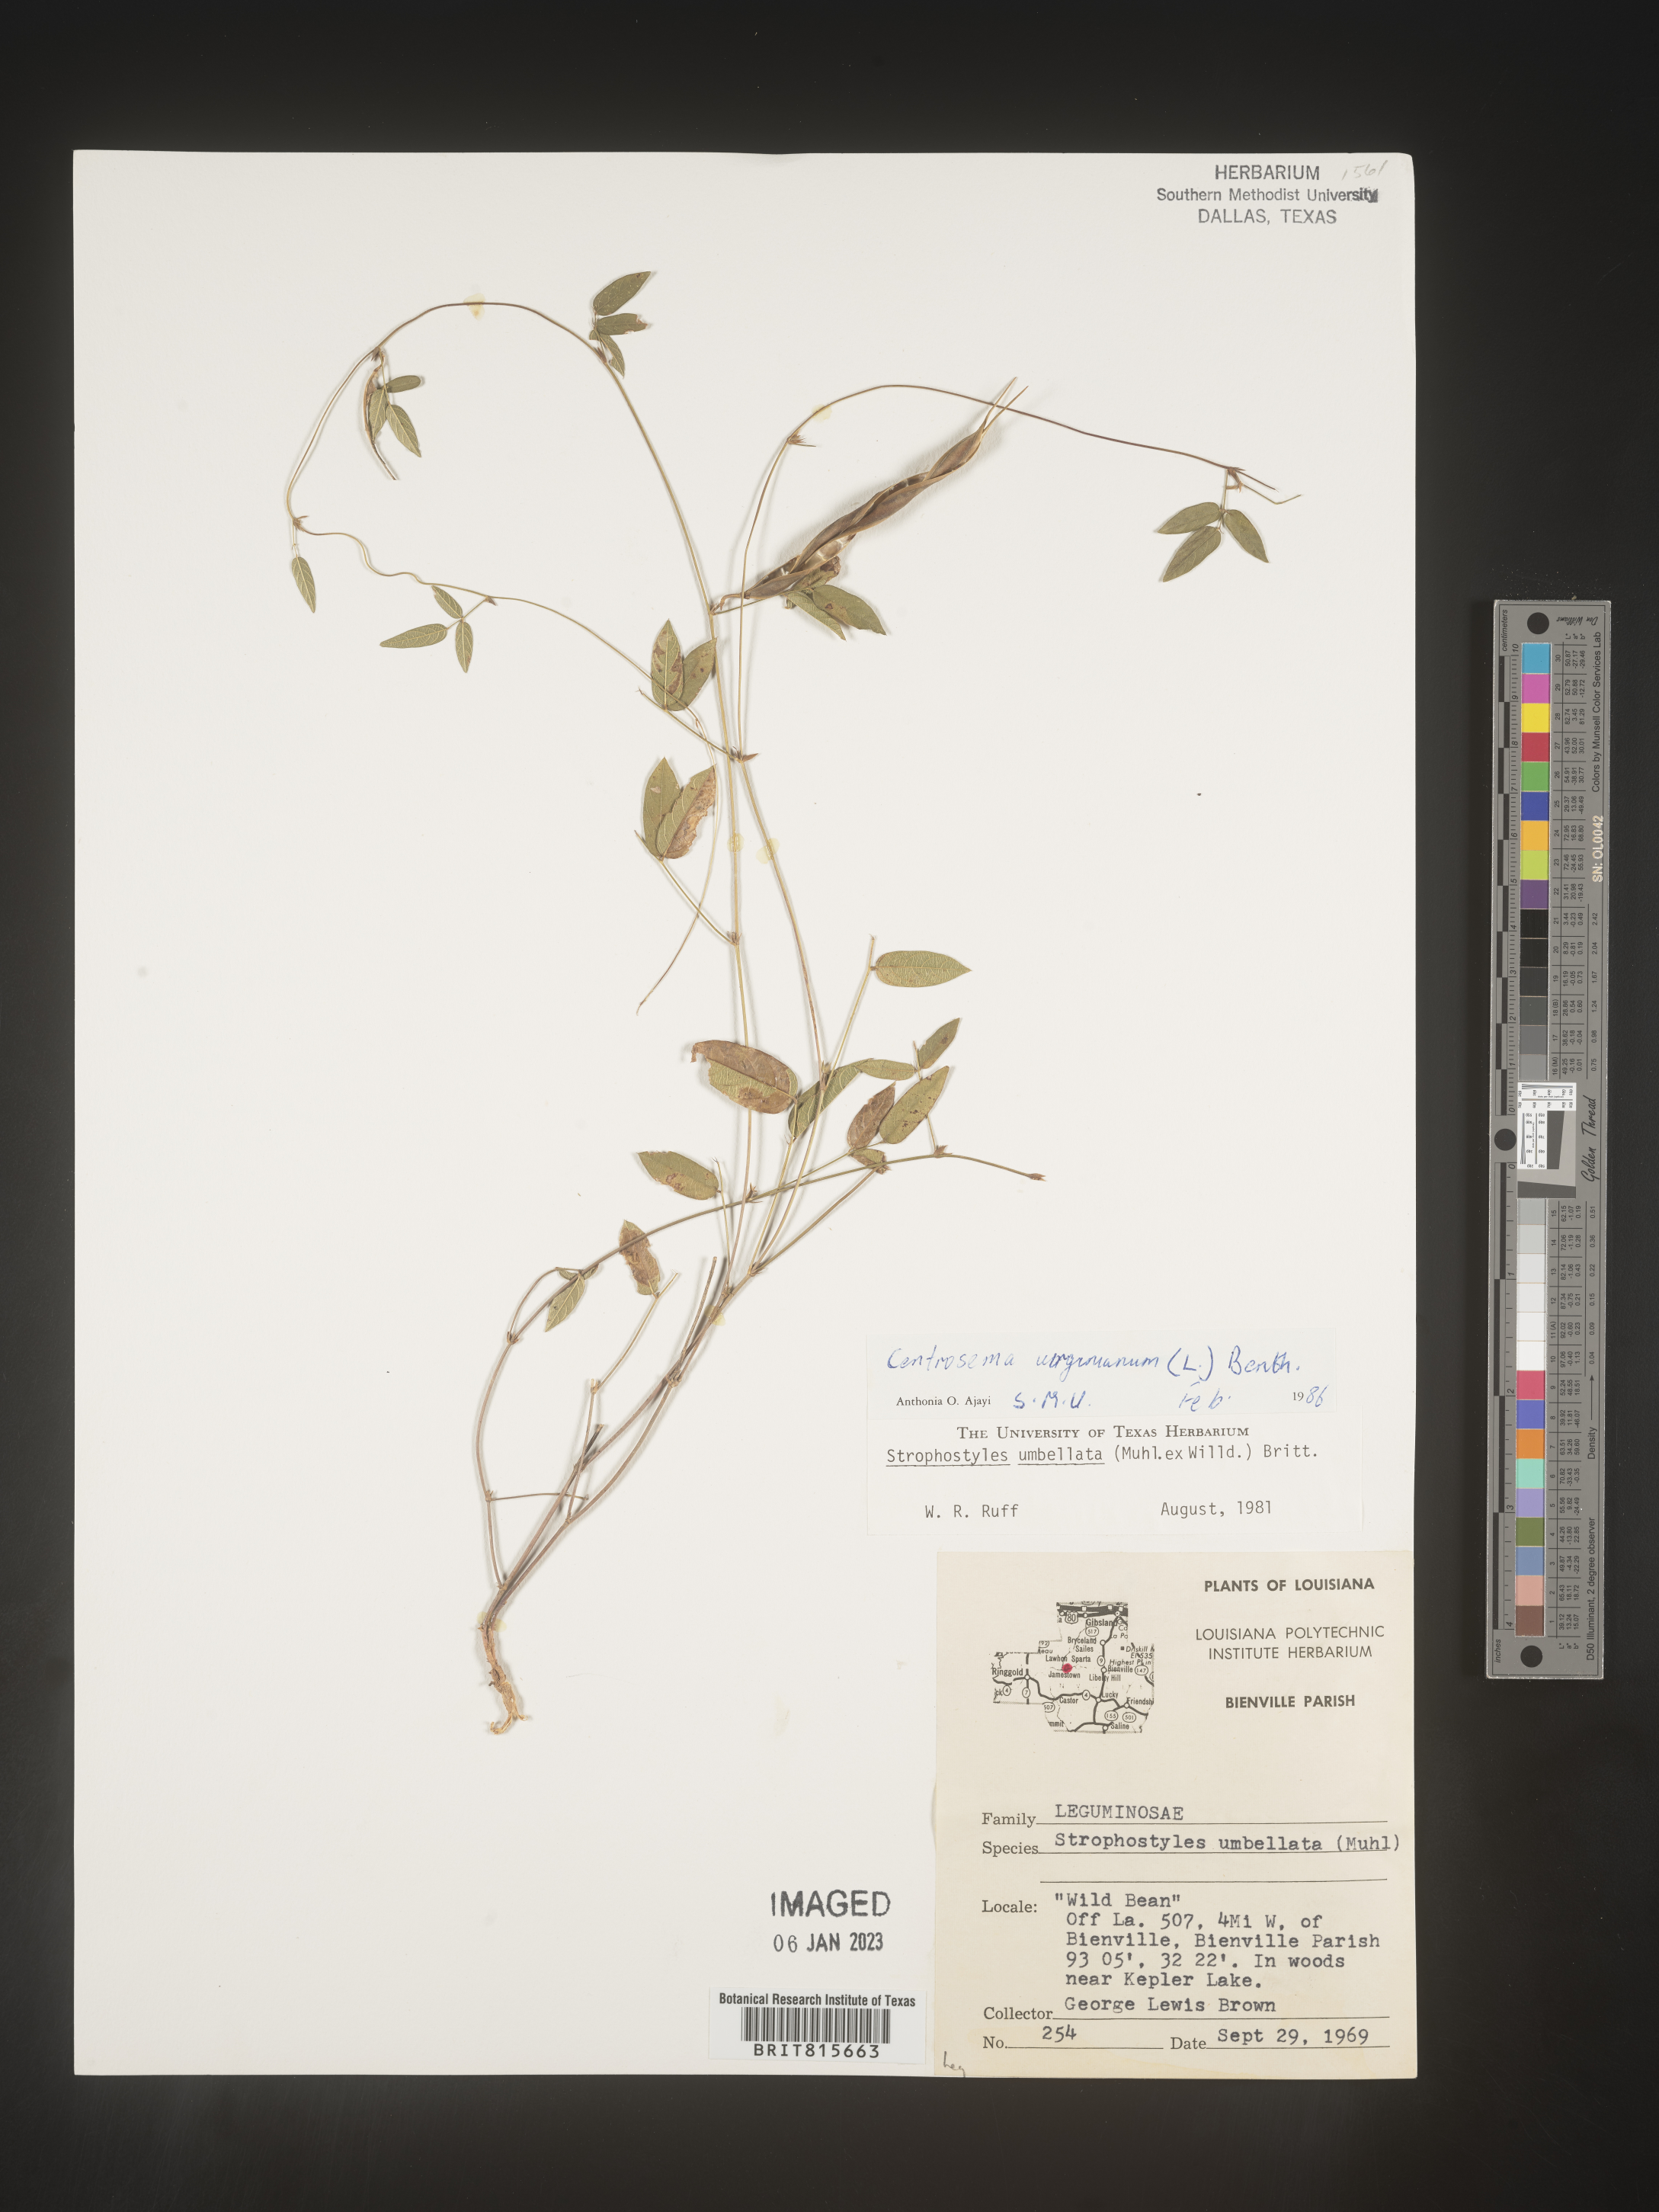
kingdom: Plantae
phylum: Tracheophyta
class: Magnoliopsida
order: Fabales
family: Fabaceae
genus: Centrosema
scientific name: Centrosema virginianum
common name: Butterfly-pea
